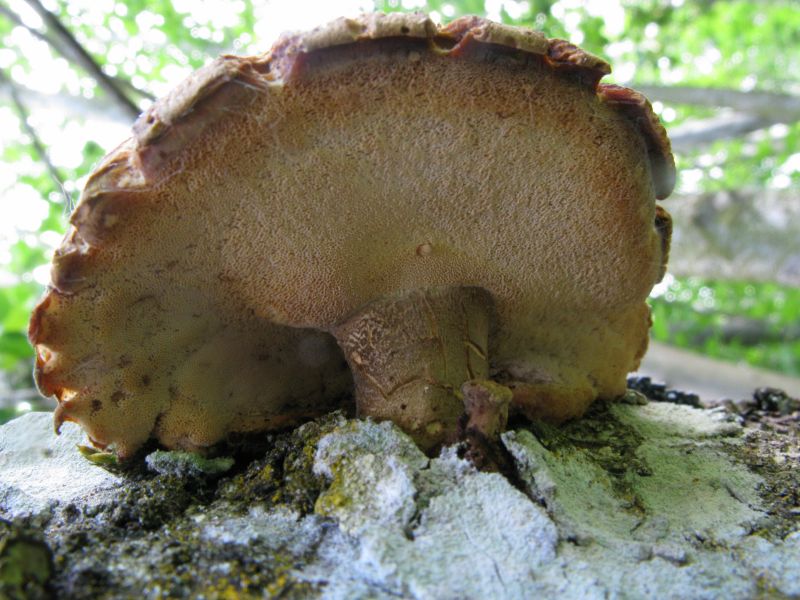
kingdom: Fungi
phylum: Basidiomycota
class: Agaricomycetes
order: Polyporales
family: Polyporaceae
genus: Lentinus
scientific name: Lentinus substrictus
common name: forårs-stilkporesvamp
